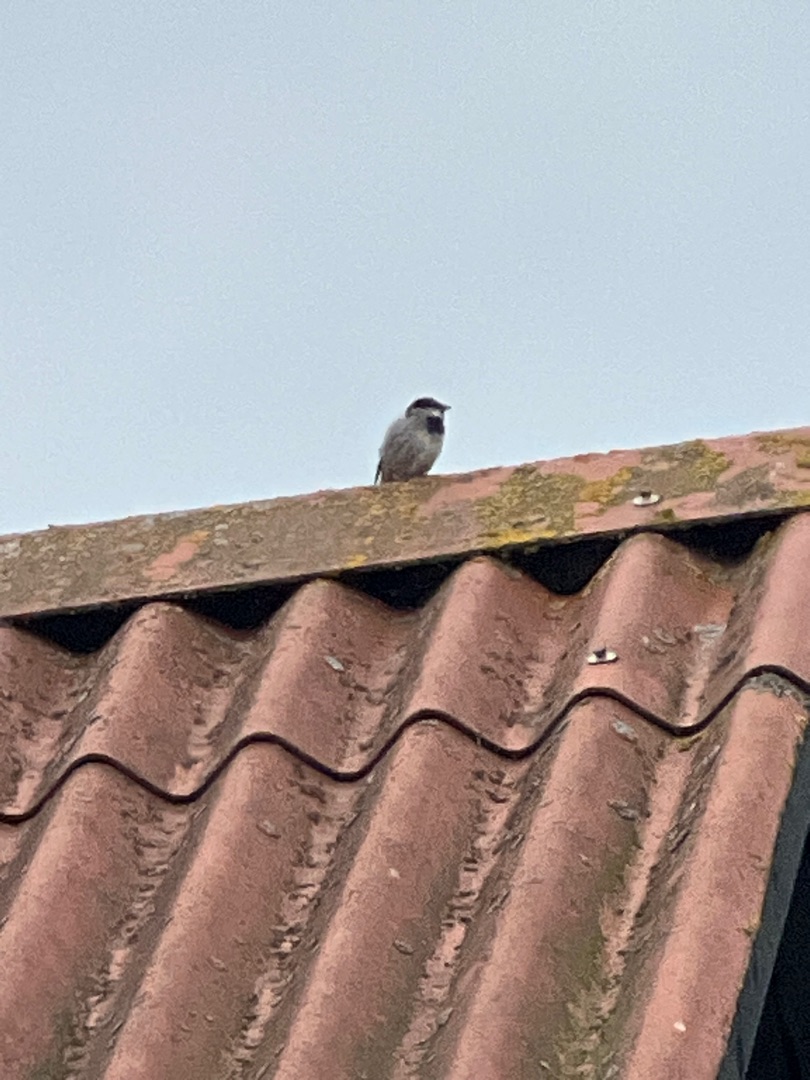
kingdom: Animalia
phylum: Chordata
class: Aves
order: Passeriformes
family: Passeridae
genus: Passer
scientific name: Passer domesticus
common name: Gråspurv
